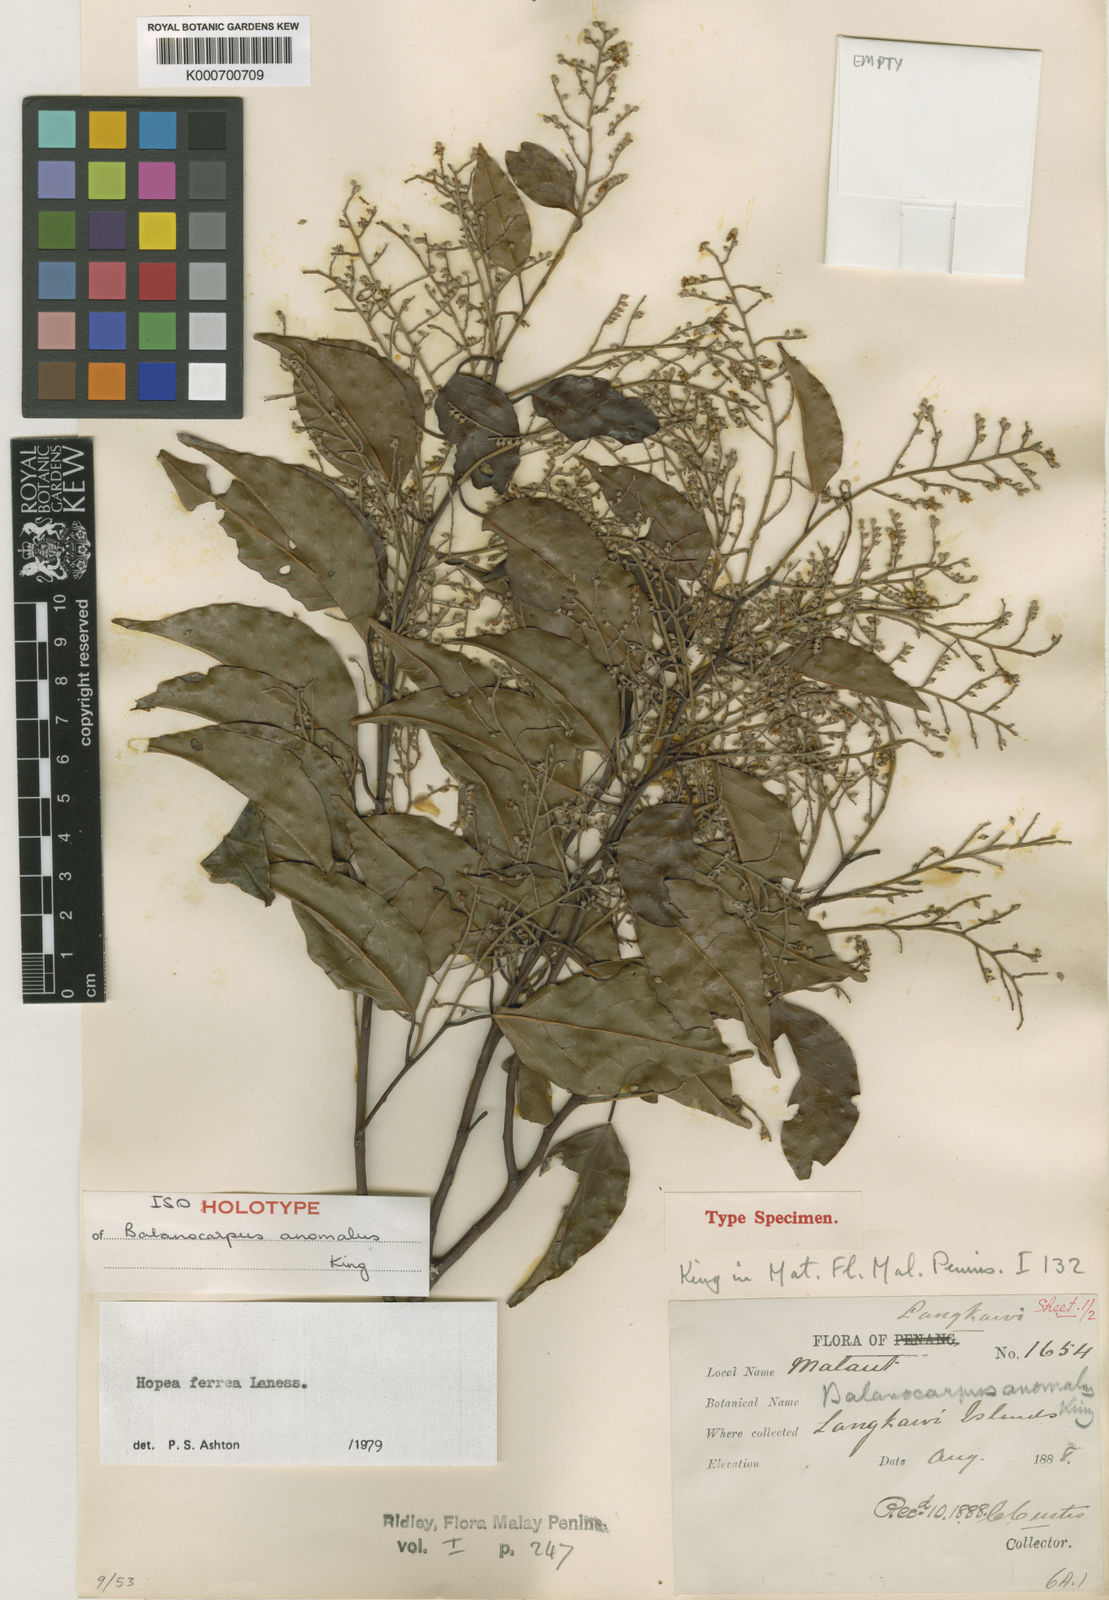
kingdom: Plantae
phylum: Tracheophyta
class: Magnoliopsida
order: Malvales
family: Dipterocarpaceae
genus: Hopea
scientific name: Hopea ferrea
